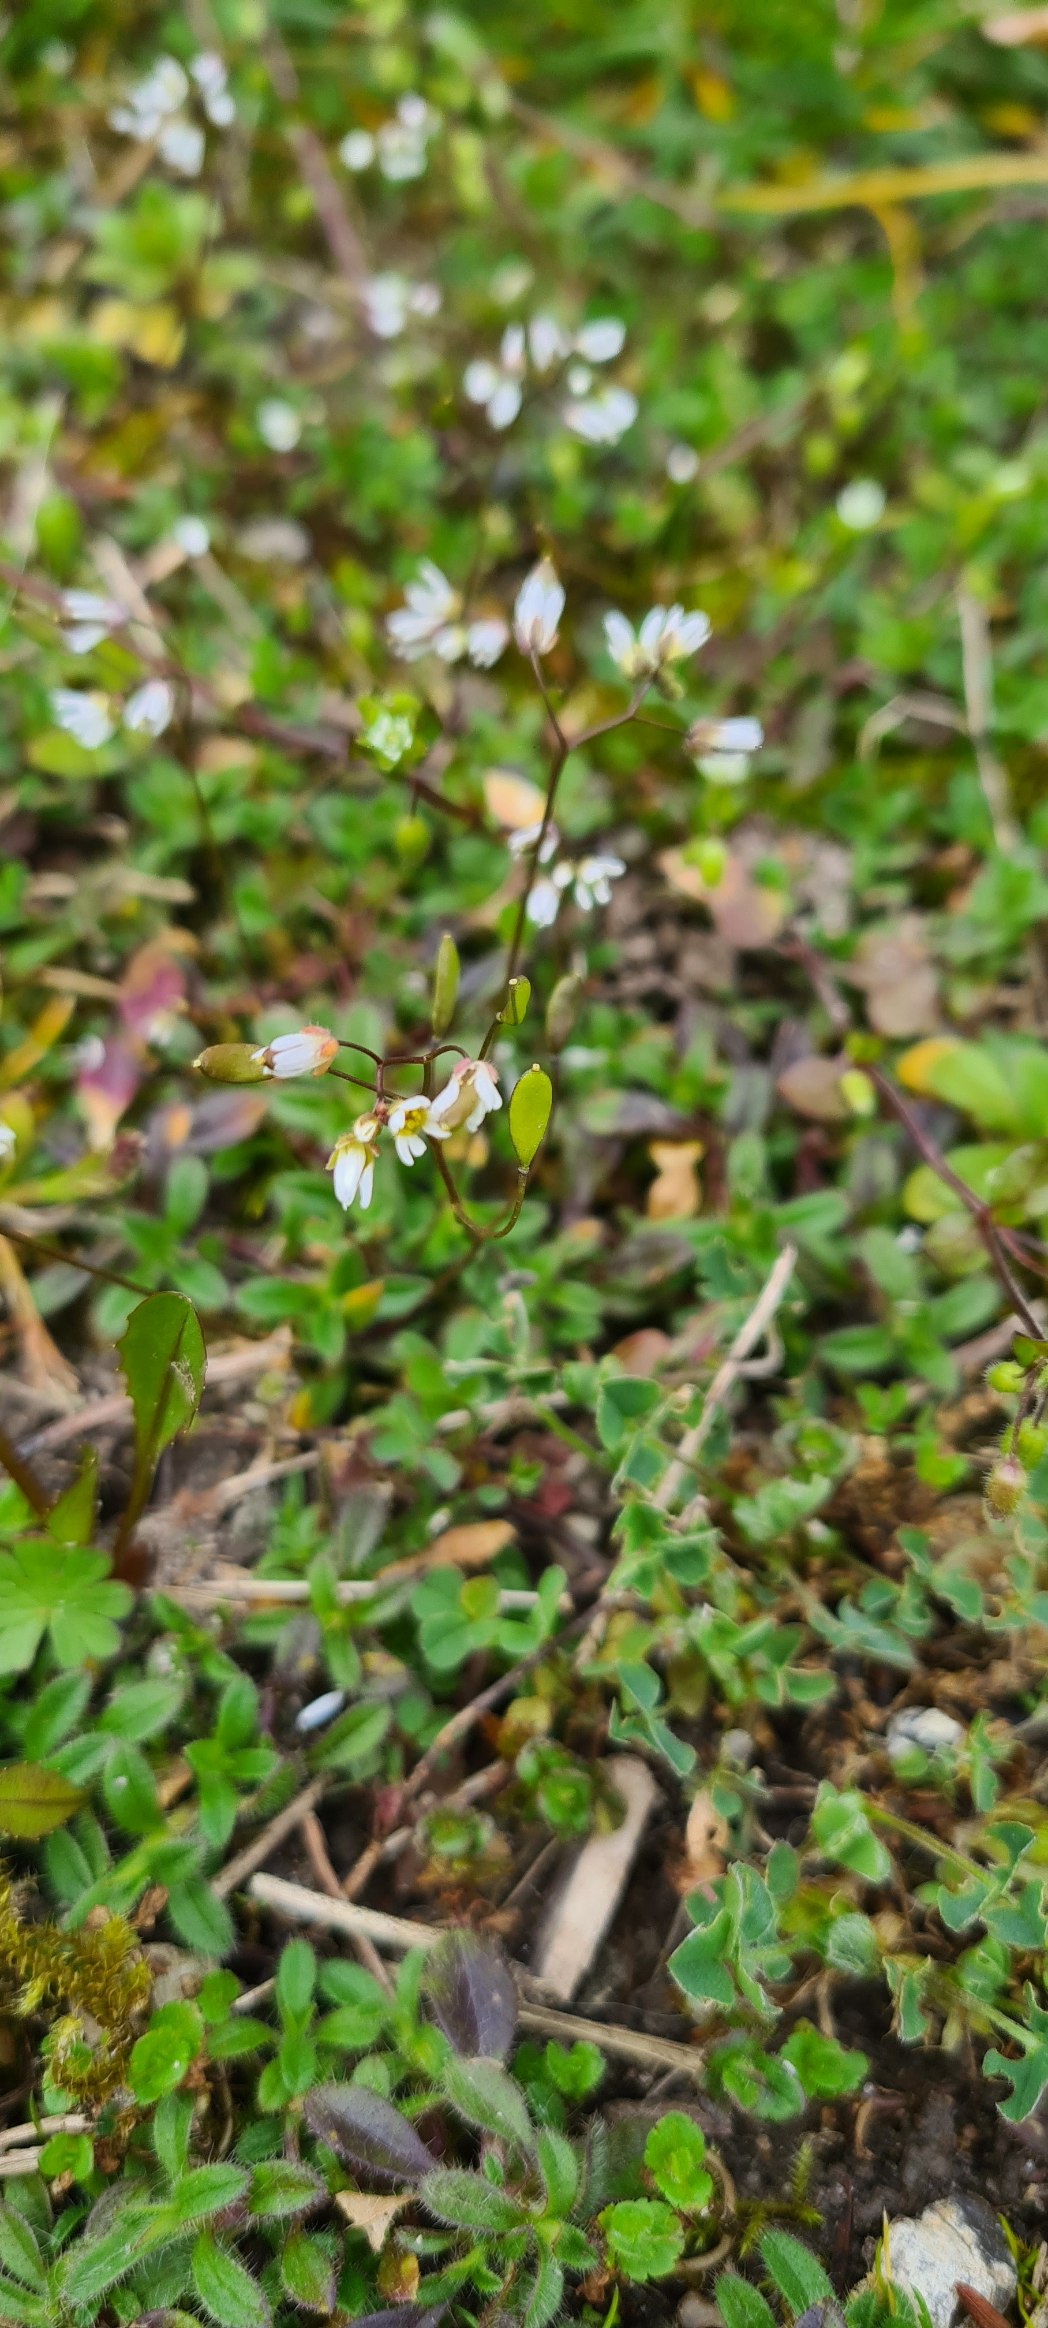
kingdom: Plantae
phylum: Tracheophyta
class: Magnoliopsida
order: Brassicales
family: Brassicaceae
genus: Draba
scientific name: Draba verna
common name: Vår-gæslingeblomst
